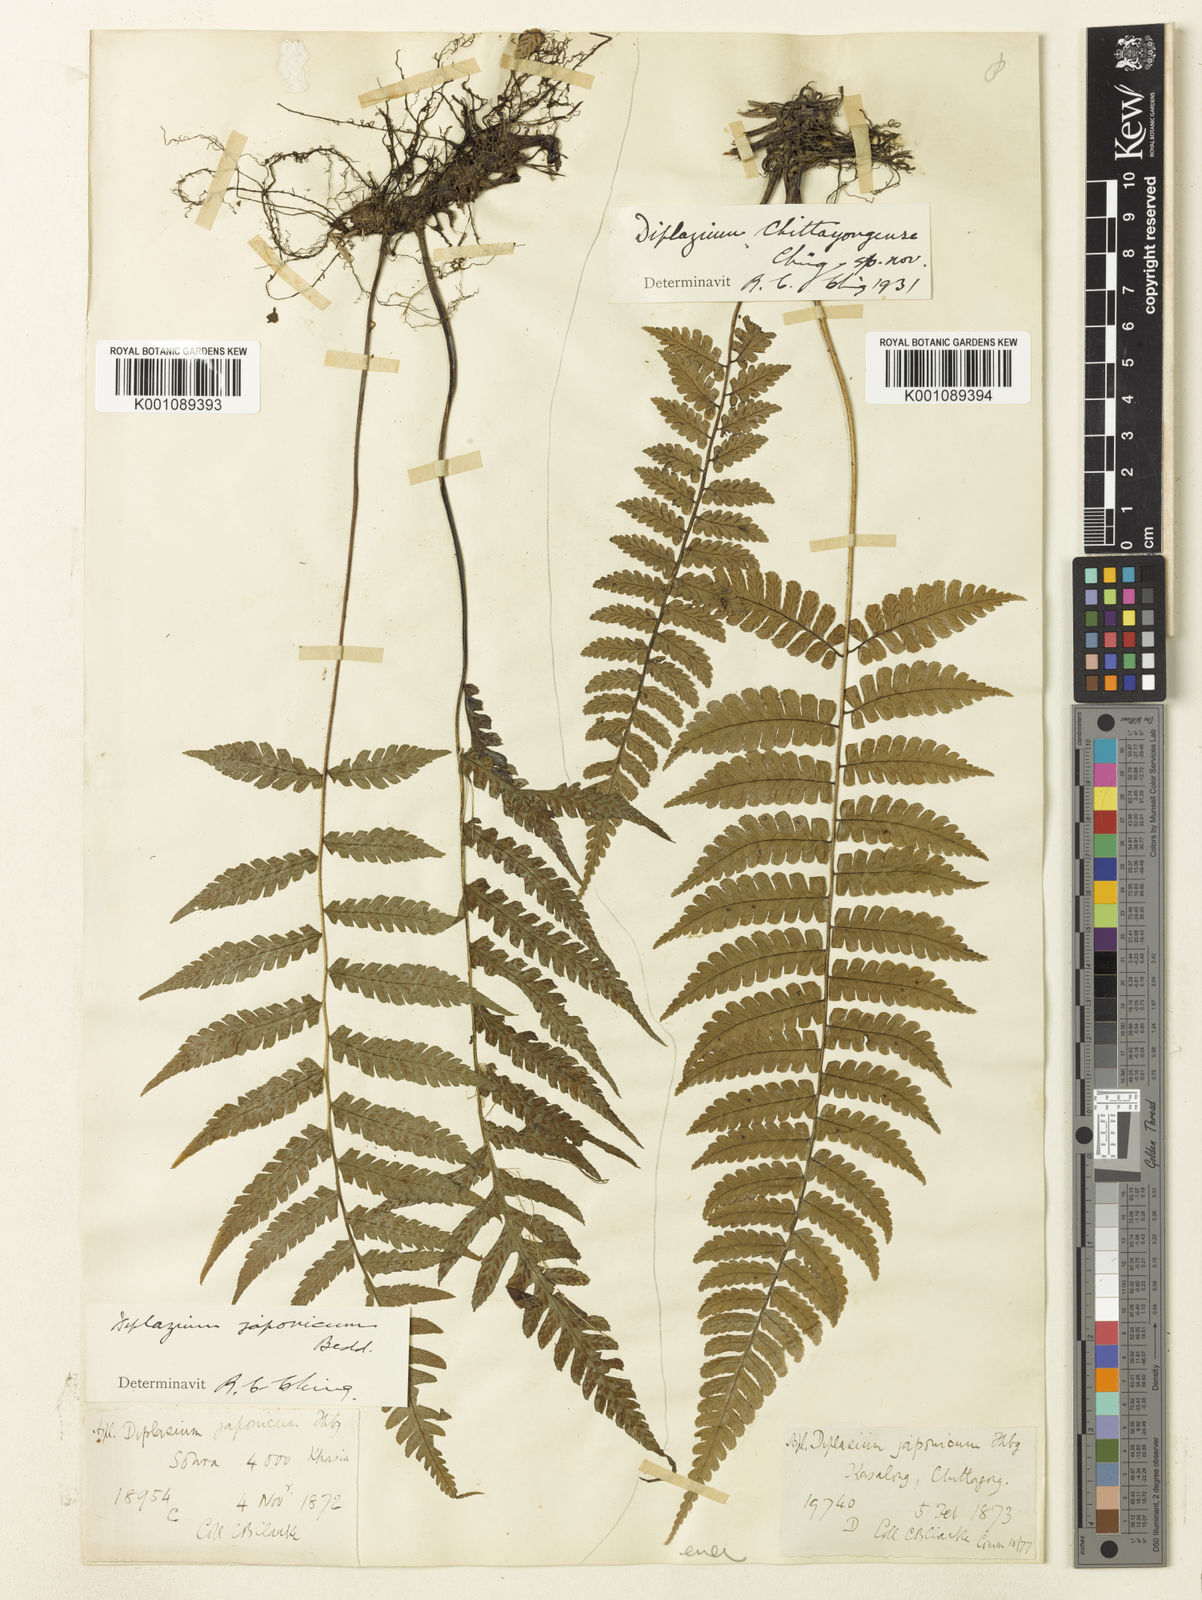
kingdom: Plantae
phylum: Tracheophyta
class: Polypodiopsida
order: Polypodiales
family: Athyriaceae
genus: Diplazium
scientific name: Diplazium chattagramicum
